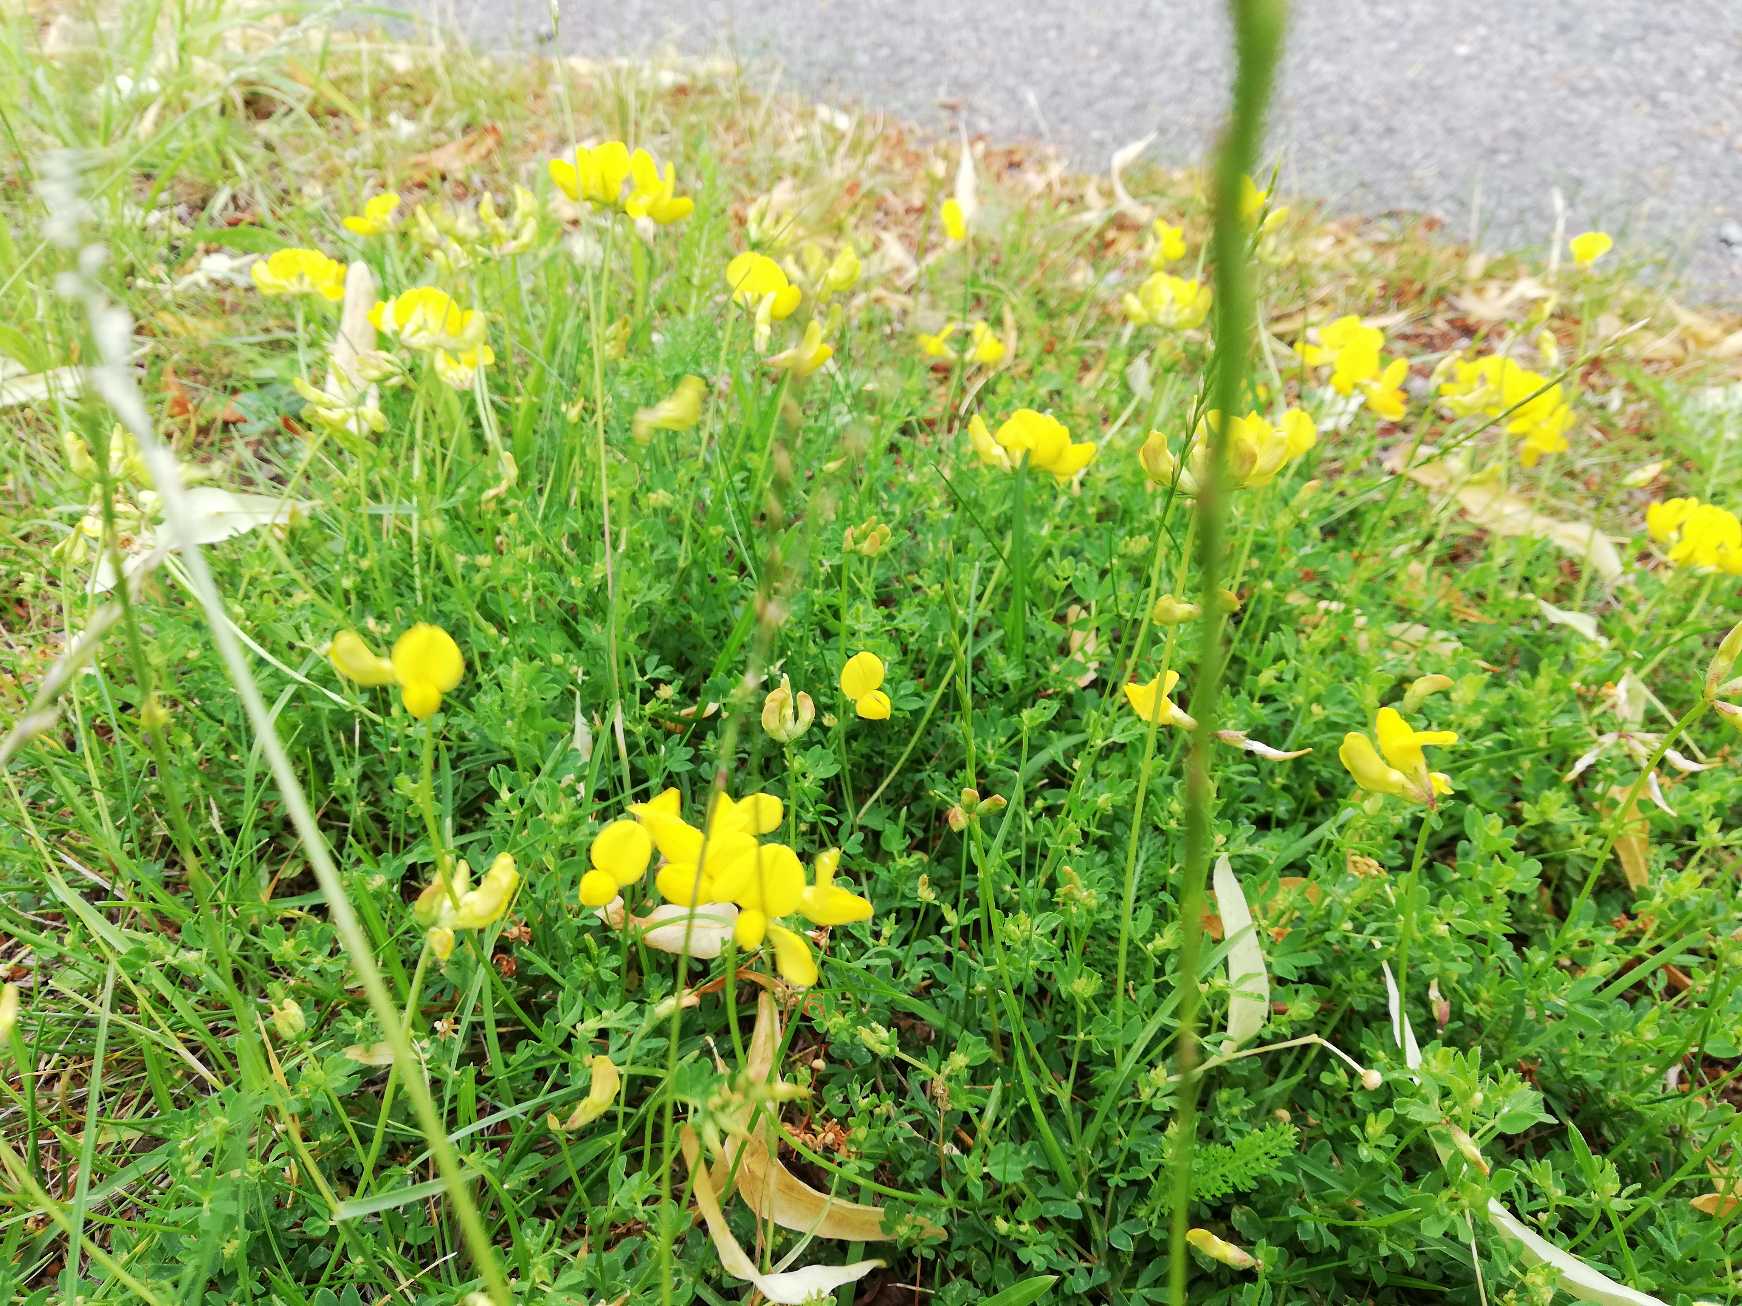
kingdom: Plantae
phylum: Tracheophyta
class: Magnoliopsida
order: Fabales
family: Fabaceae
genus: Lotus
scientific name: Lotus corniculatus
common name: Almindelig kællingetand
